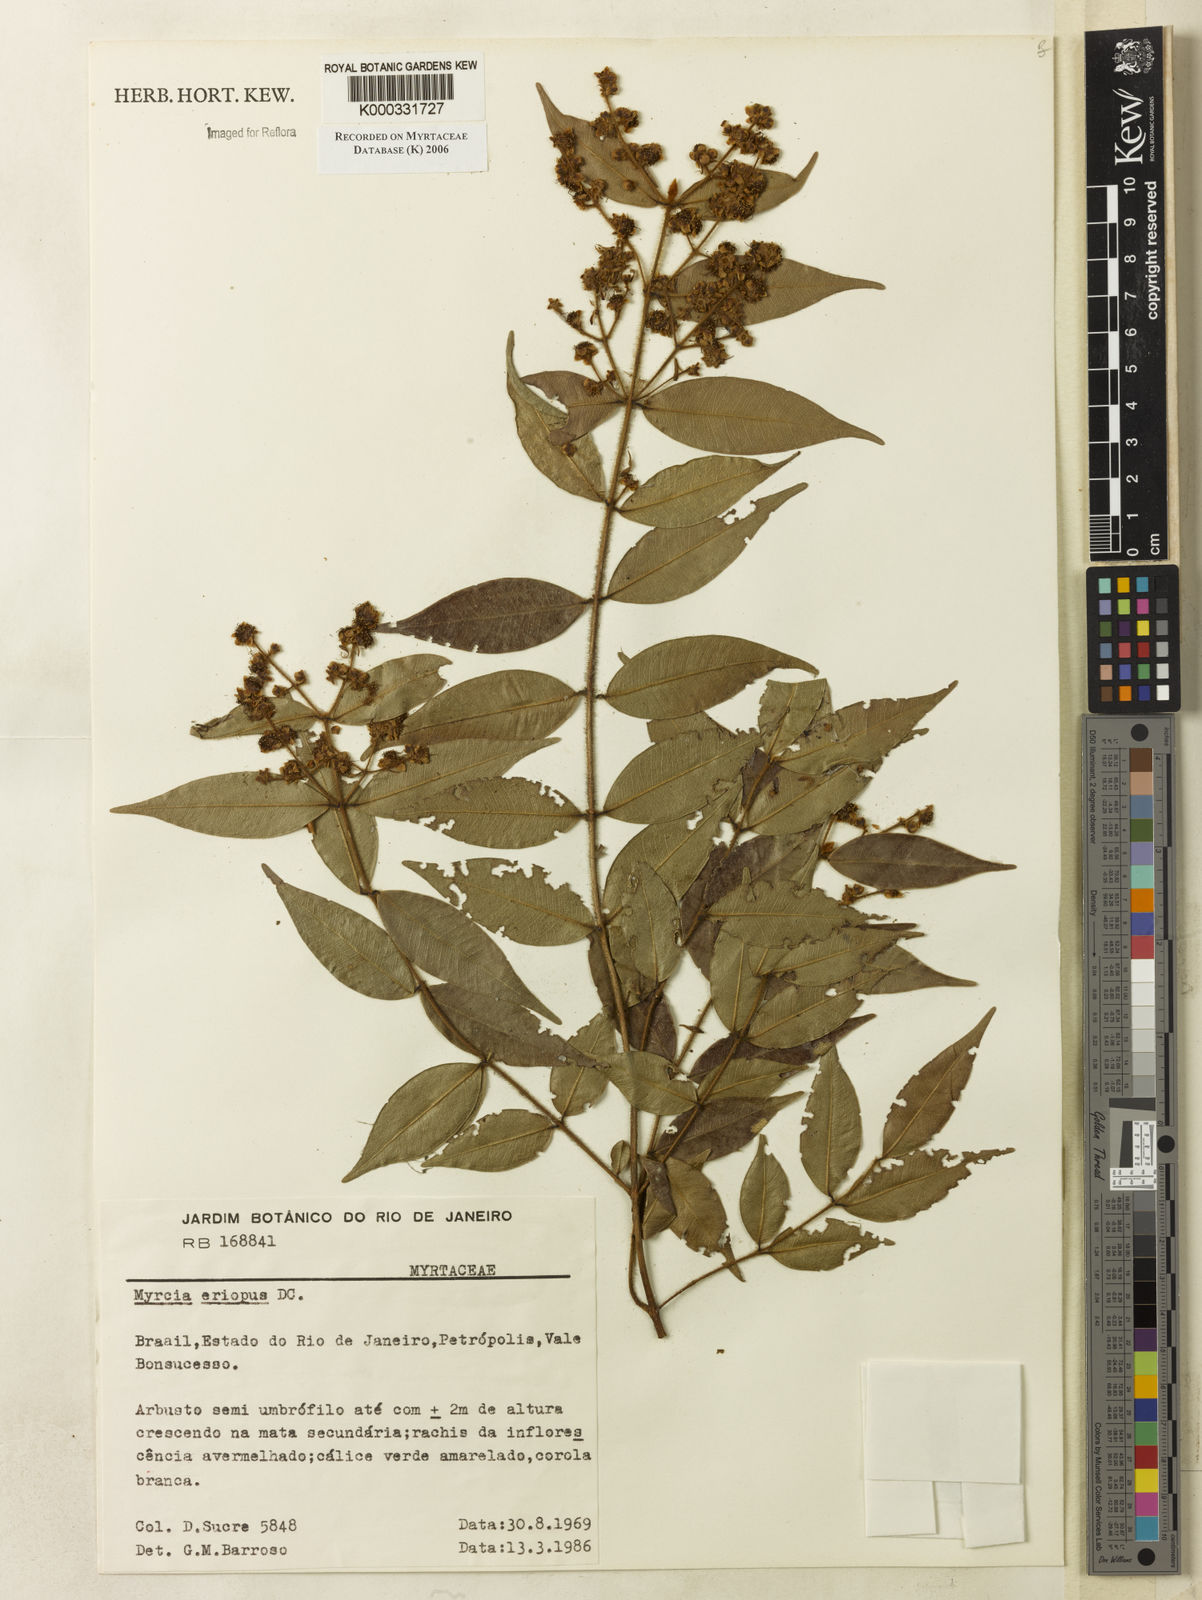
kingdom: Plantae
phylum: Tracheophyta
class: Magnoliopsida
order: Myrtales
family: Myrtaceae
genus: Myrcia
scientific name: Myrcia eriopus
